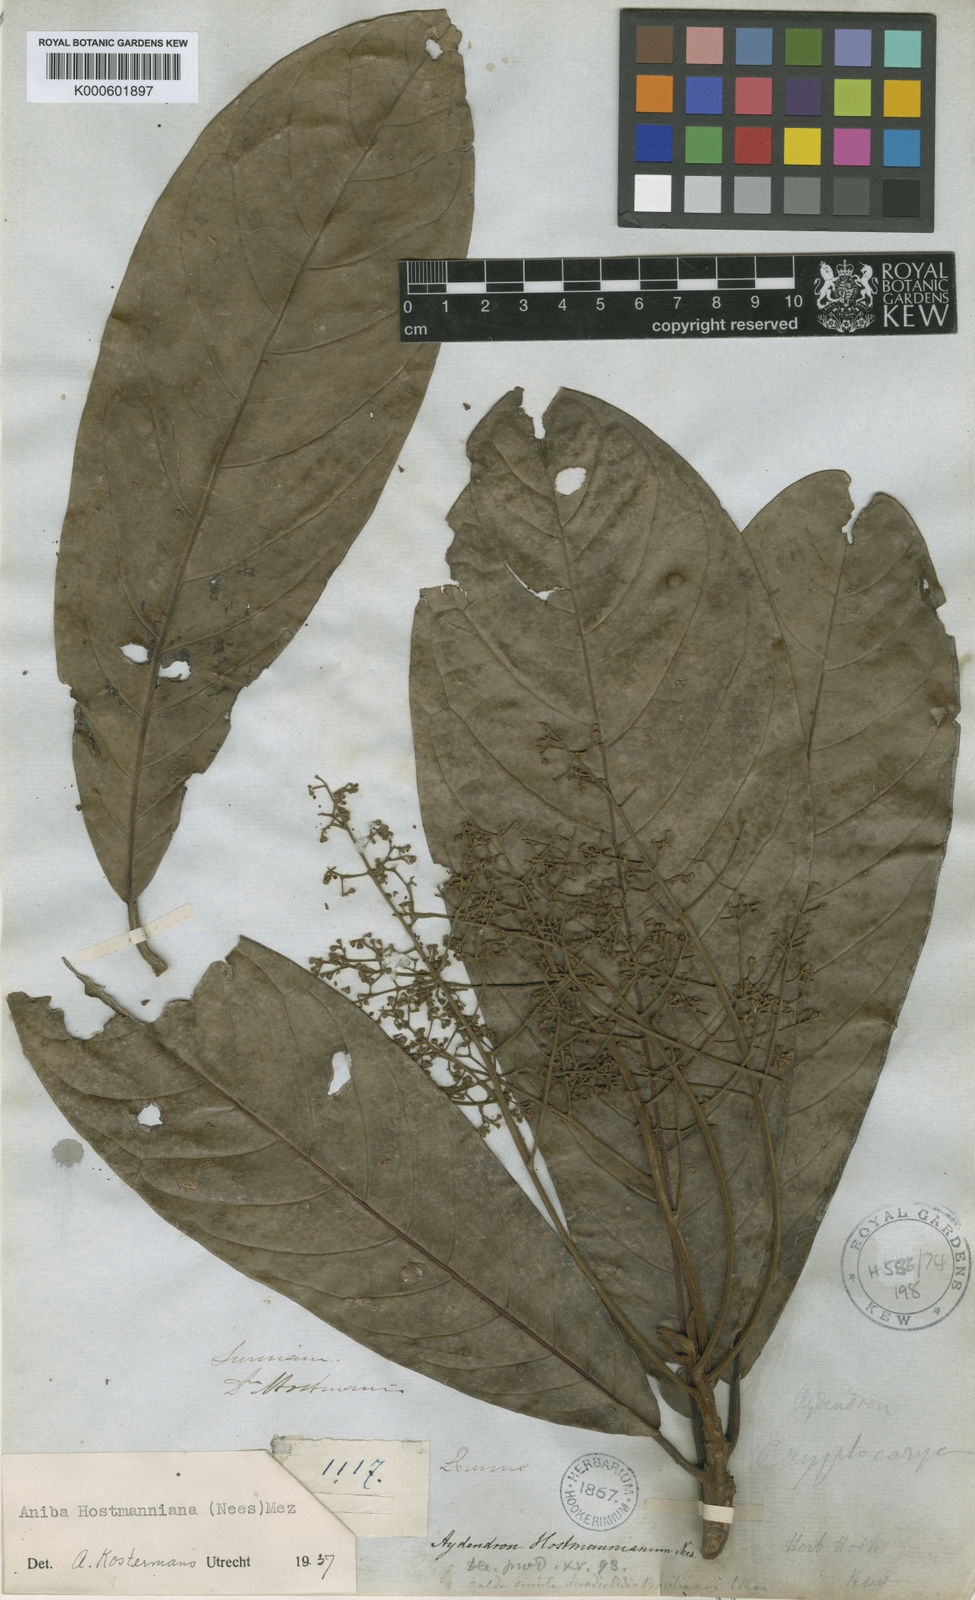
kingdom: Plantae
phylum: Tracheophyta
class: Magnoliopsida
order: Laurales
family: Lauraceae
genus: Aniba
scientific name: Aniba hostmanniana
